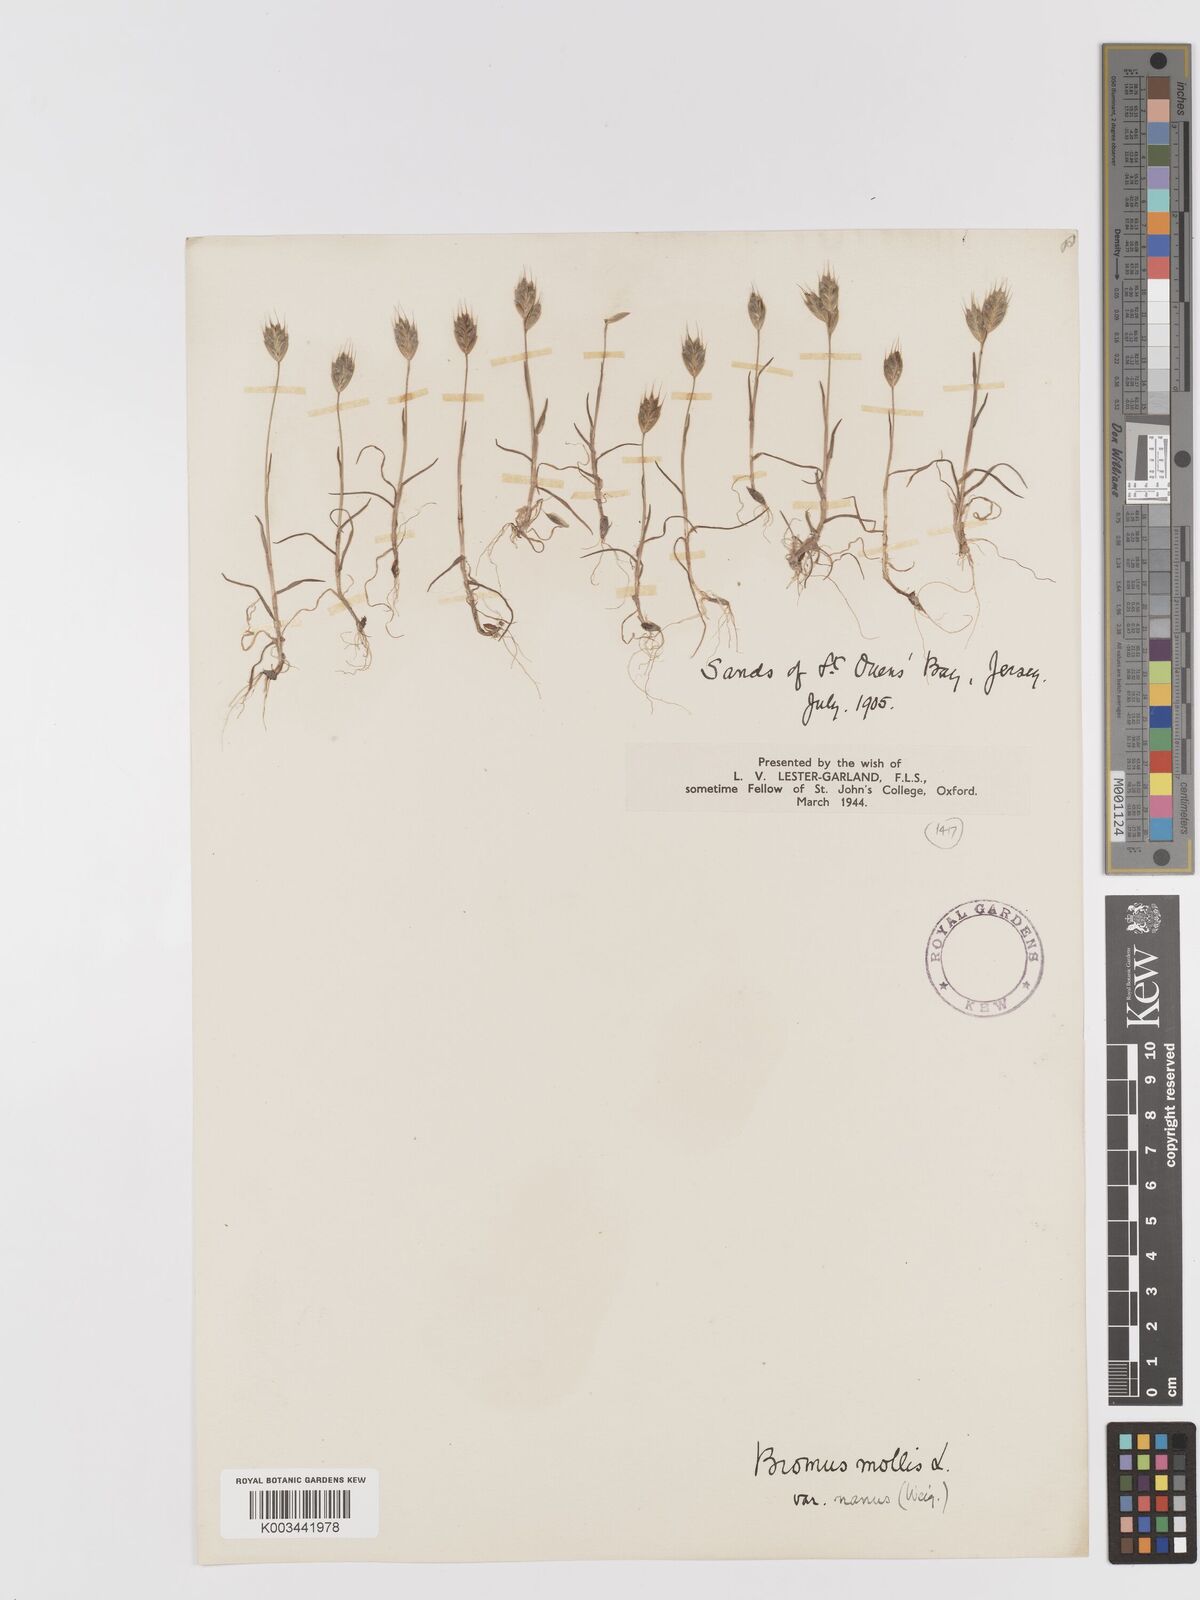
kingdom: Plantae
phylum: Tracheophyta
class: Liliopsida
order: Poales
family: Poaceae
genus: Bromus
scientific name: Bromus hordeaceus
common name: Soft brome
